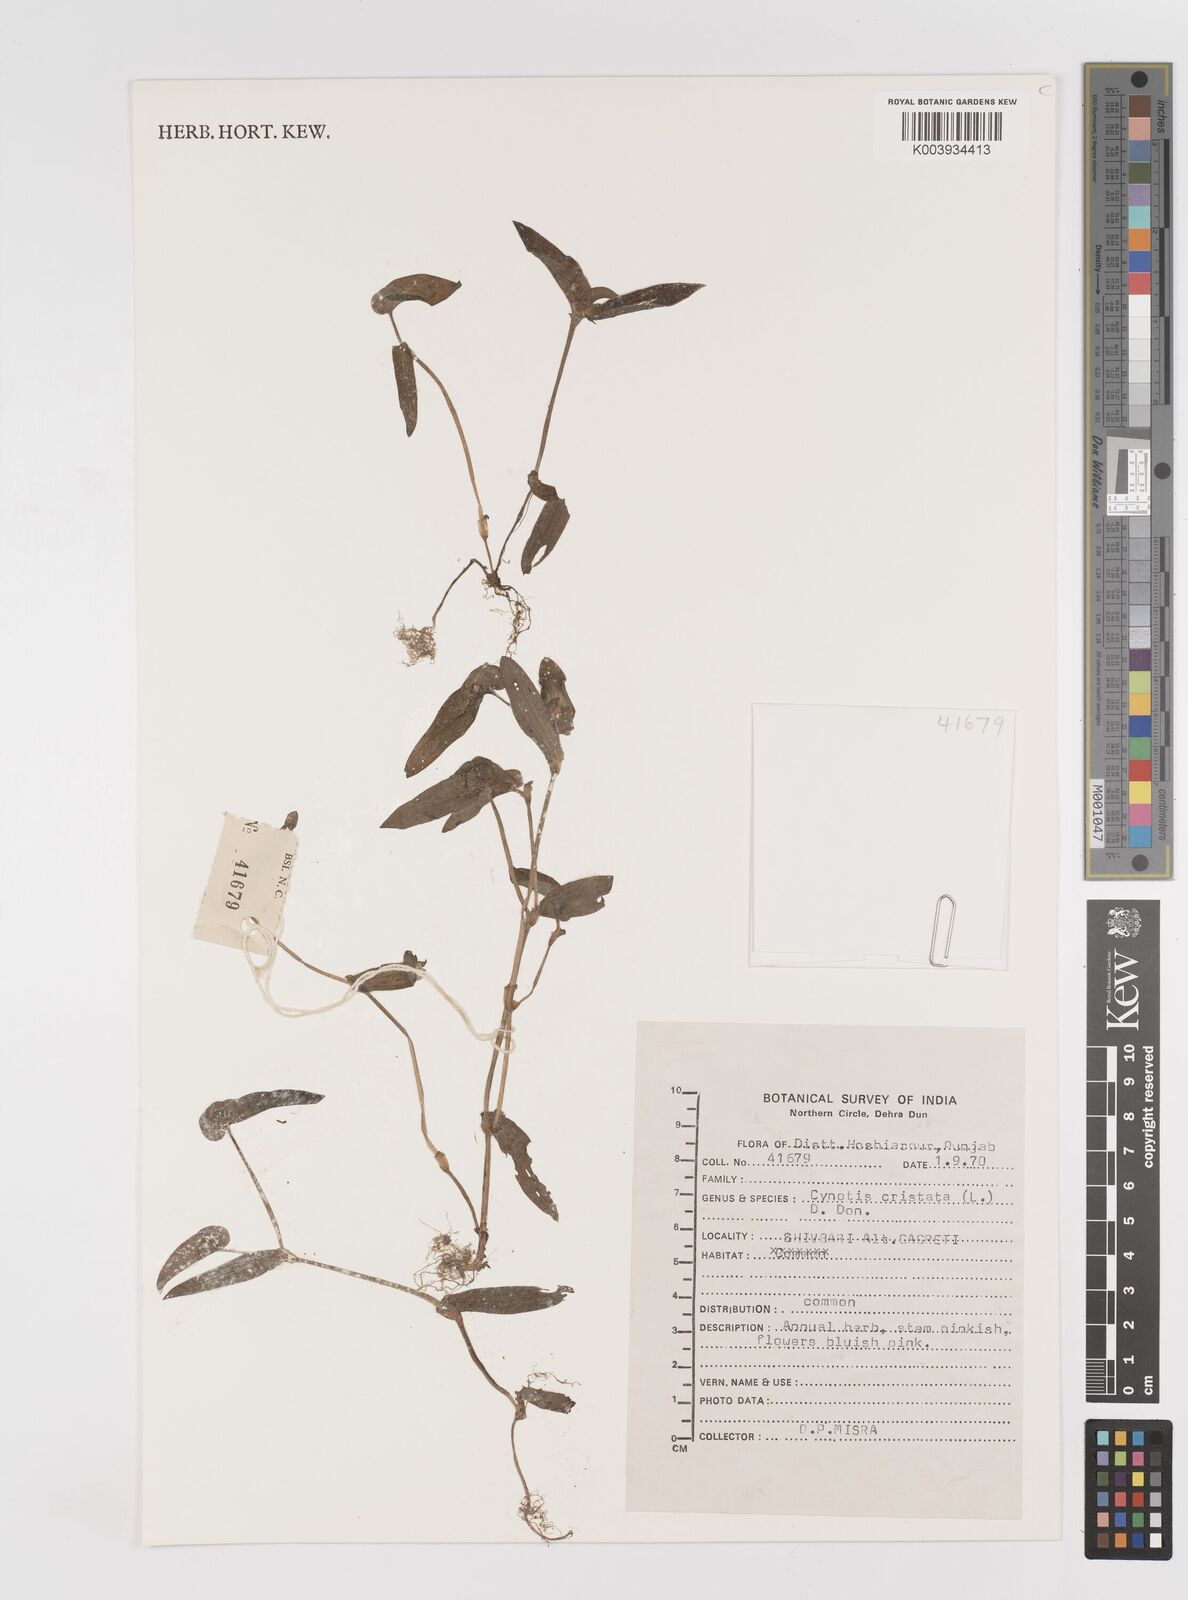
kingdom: Plantae
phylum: Tracheophyta
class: Liliopsida
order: Commelinales
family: Commelinaceae
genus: Cyanotis
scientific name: Cyanotis cristata
